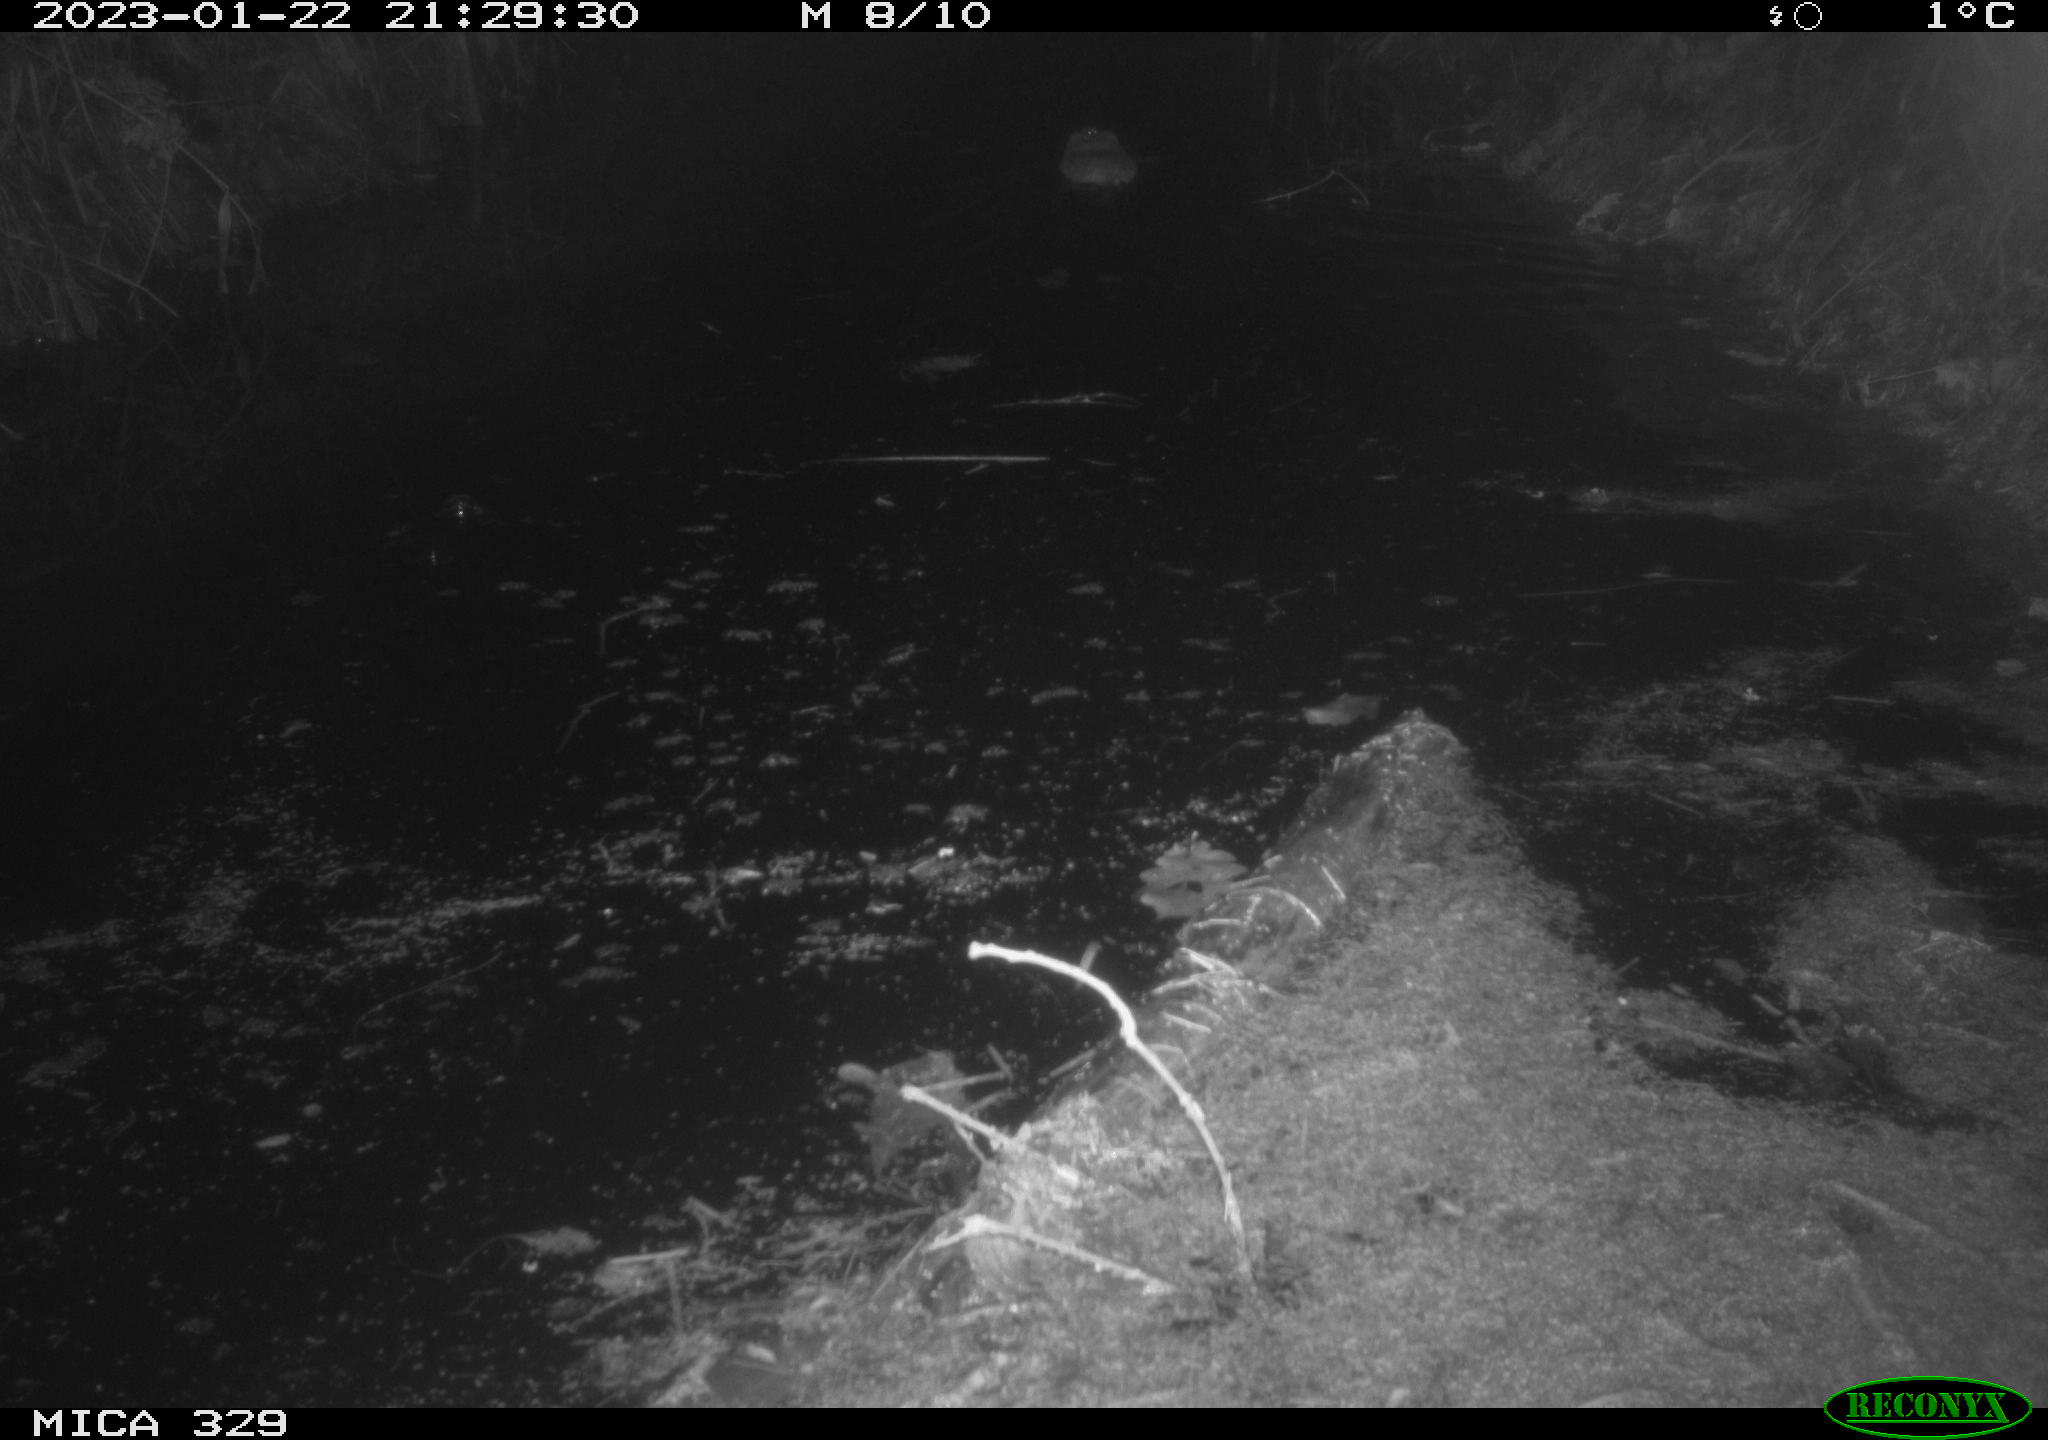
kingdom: Animalia
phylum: Chordata
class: Mammalia
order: Rodentia
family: Cricetidae
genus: Ondatra
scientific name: Ondatra zibethicus
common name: Muskrat
